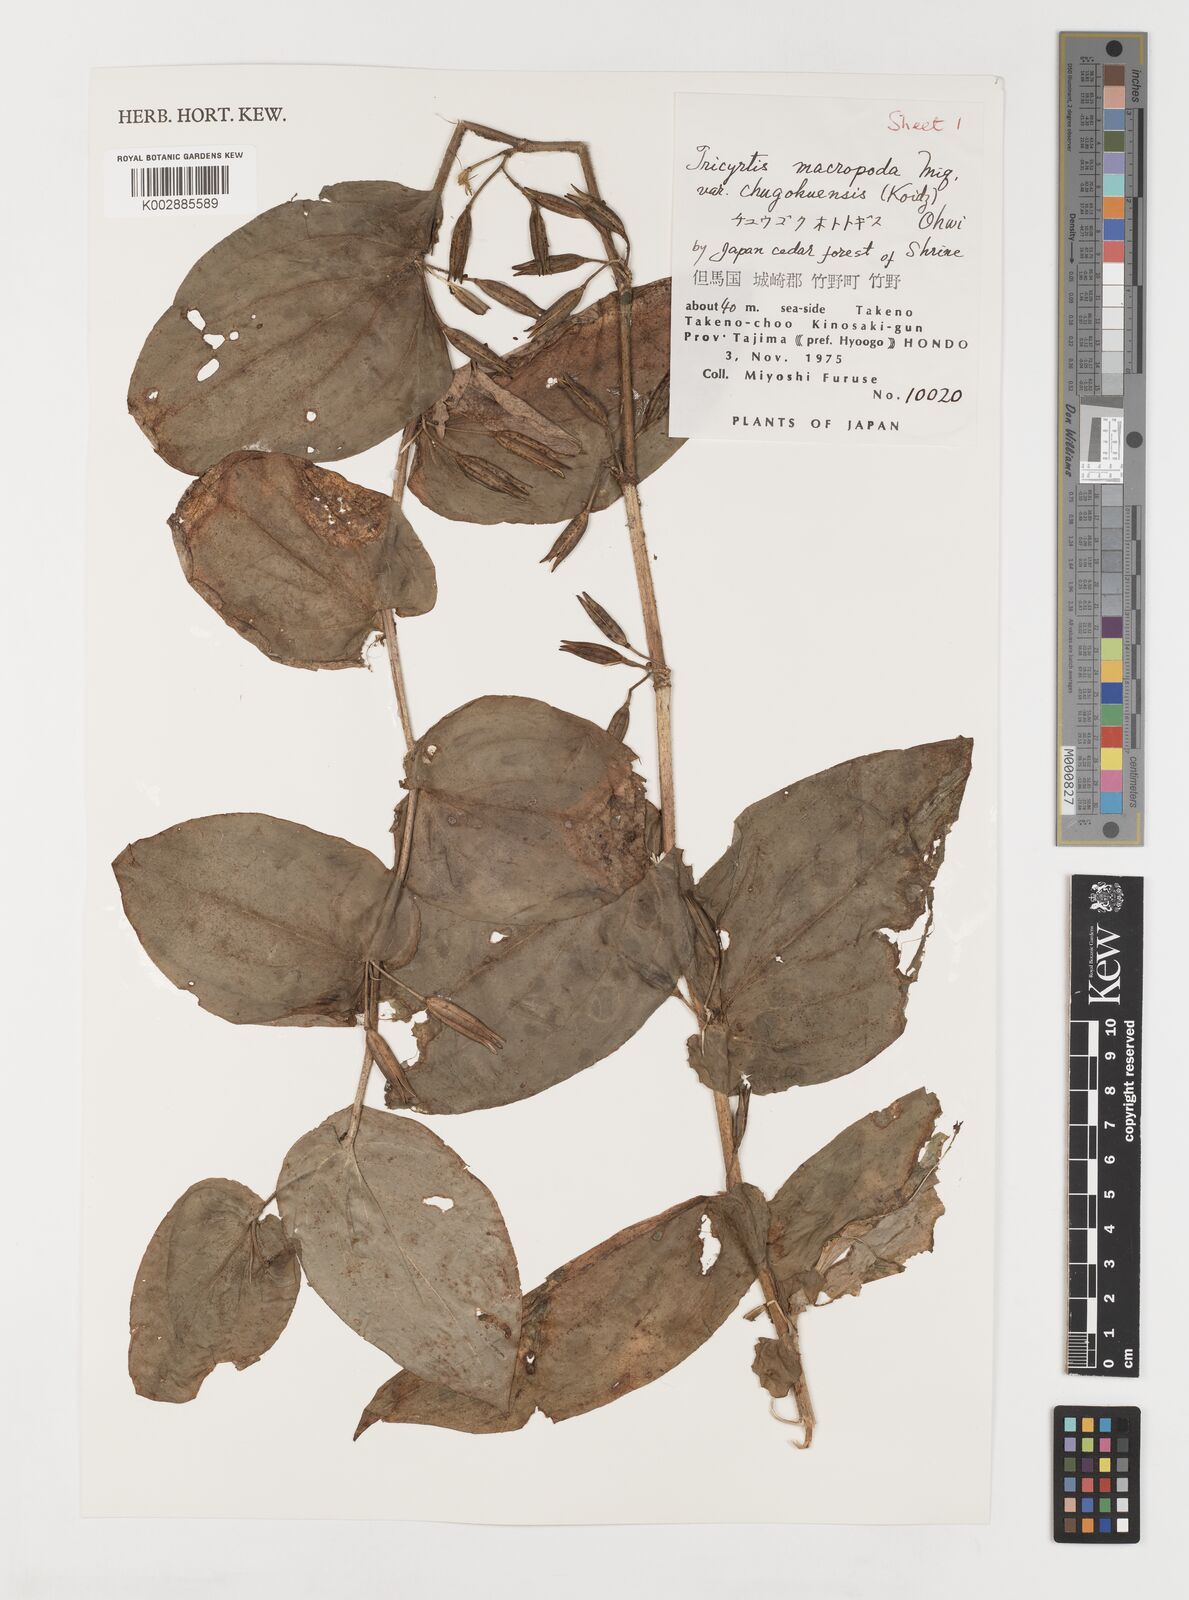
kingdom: Plantae
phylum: Tracheophyta
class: Liliopsida
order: Liliales
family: Liliaceae
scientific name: Liliaceae
